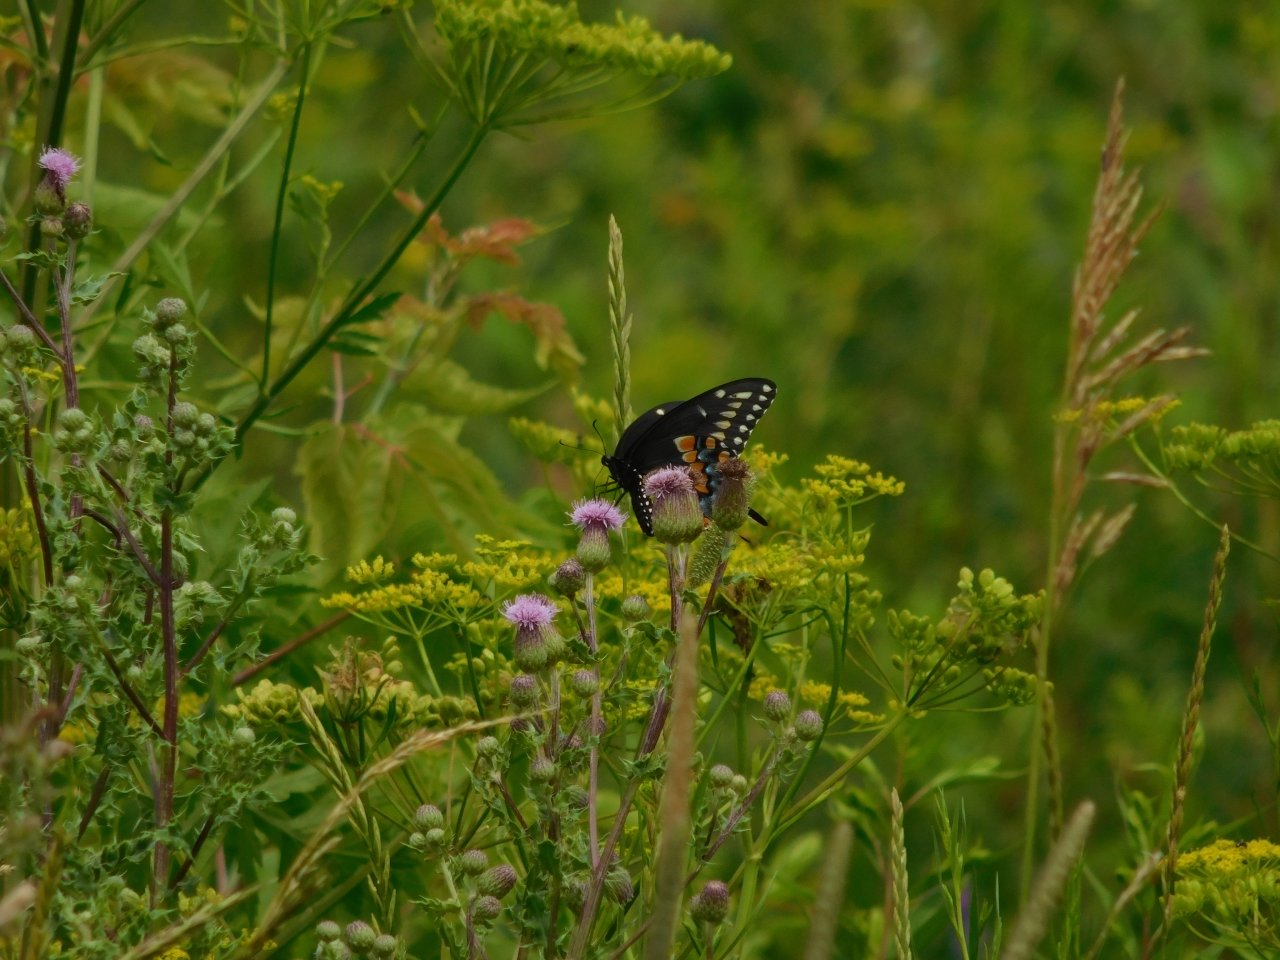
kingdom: Animalia
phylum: Arthropoda
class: Insecta
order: Lepidoptera
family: Papilionidae
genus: Papilio
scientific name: Papilio polyxenes
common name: Black Swallowtail
